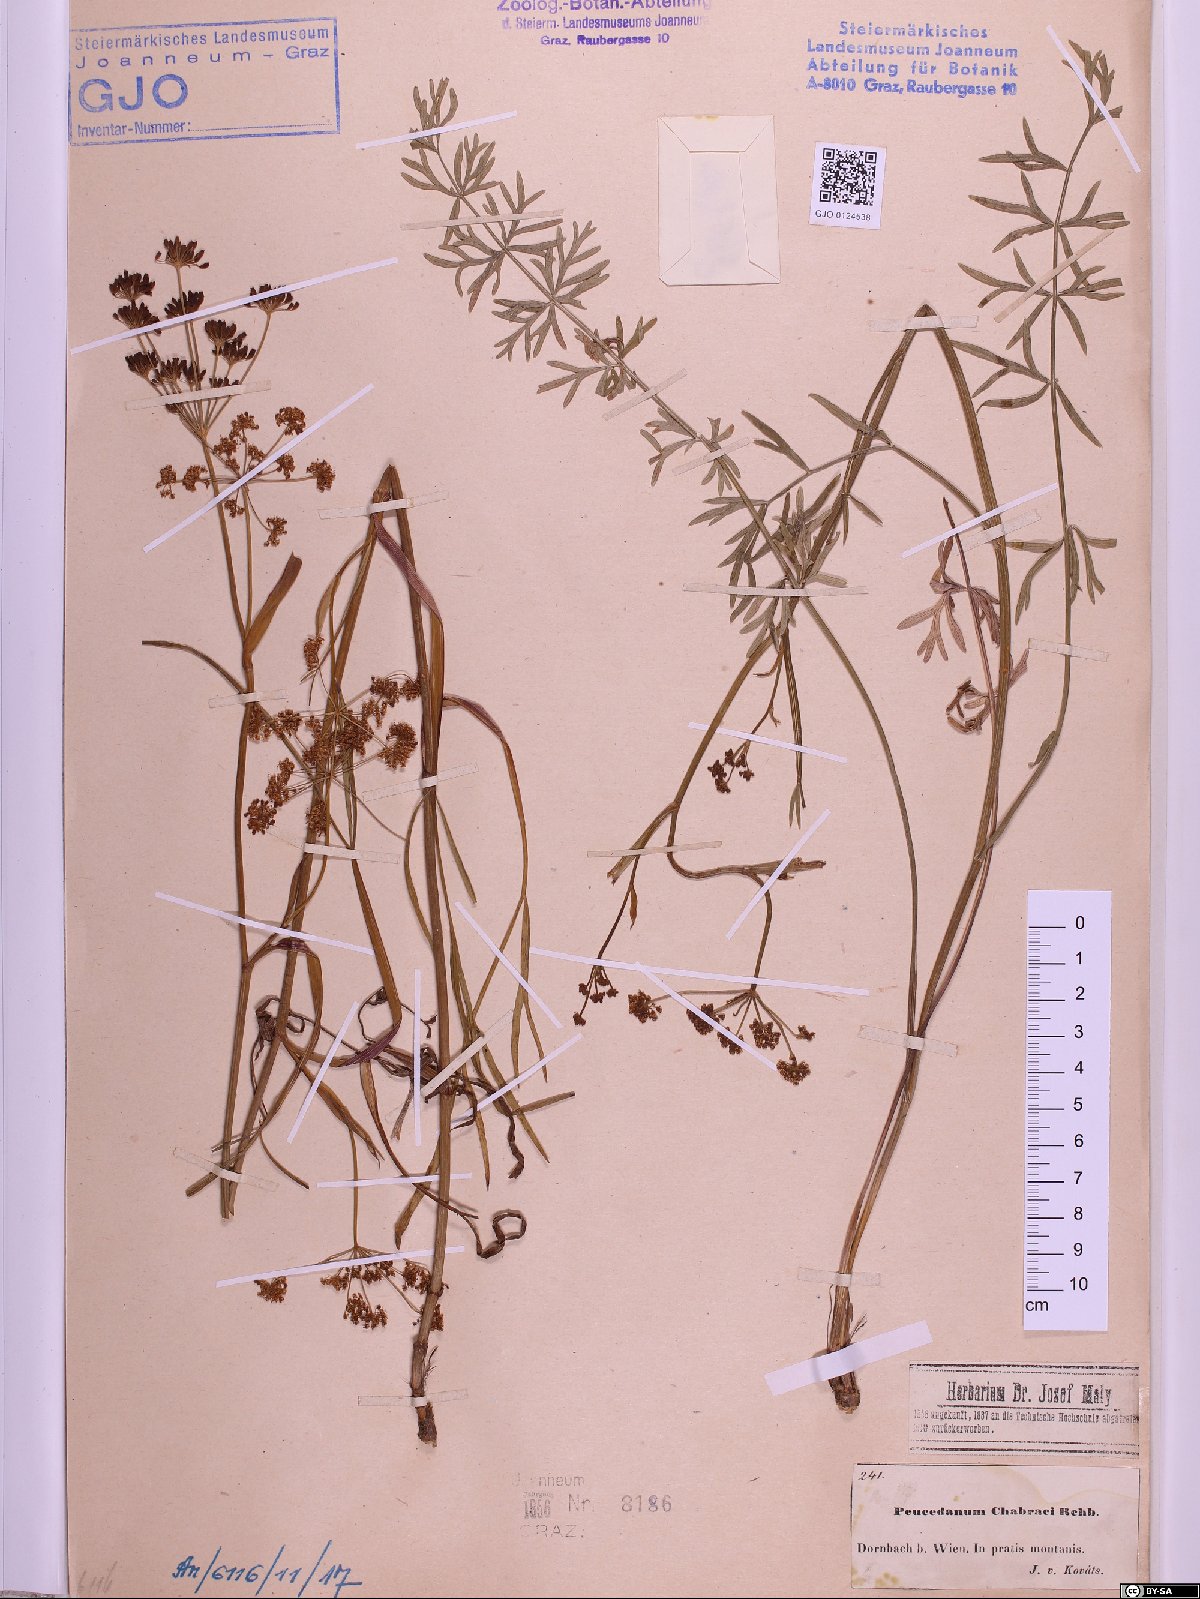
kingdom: Plantae
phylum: Tracheophyta
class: Magnoliopsida
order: Apiales
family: Apiaceae
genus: Dichoropetalum
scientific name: Dichoropetalum carvifolia
